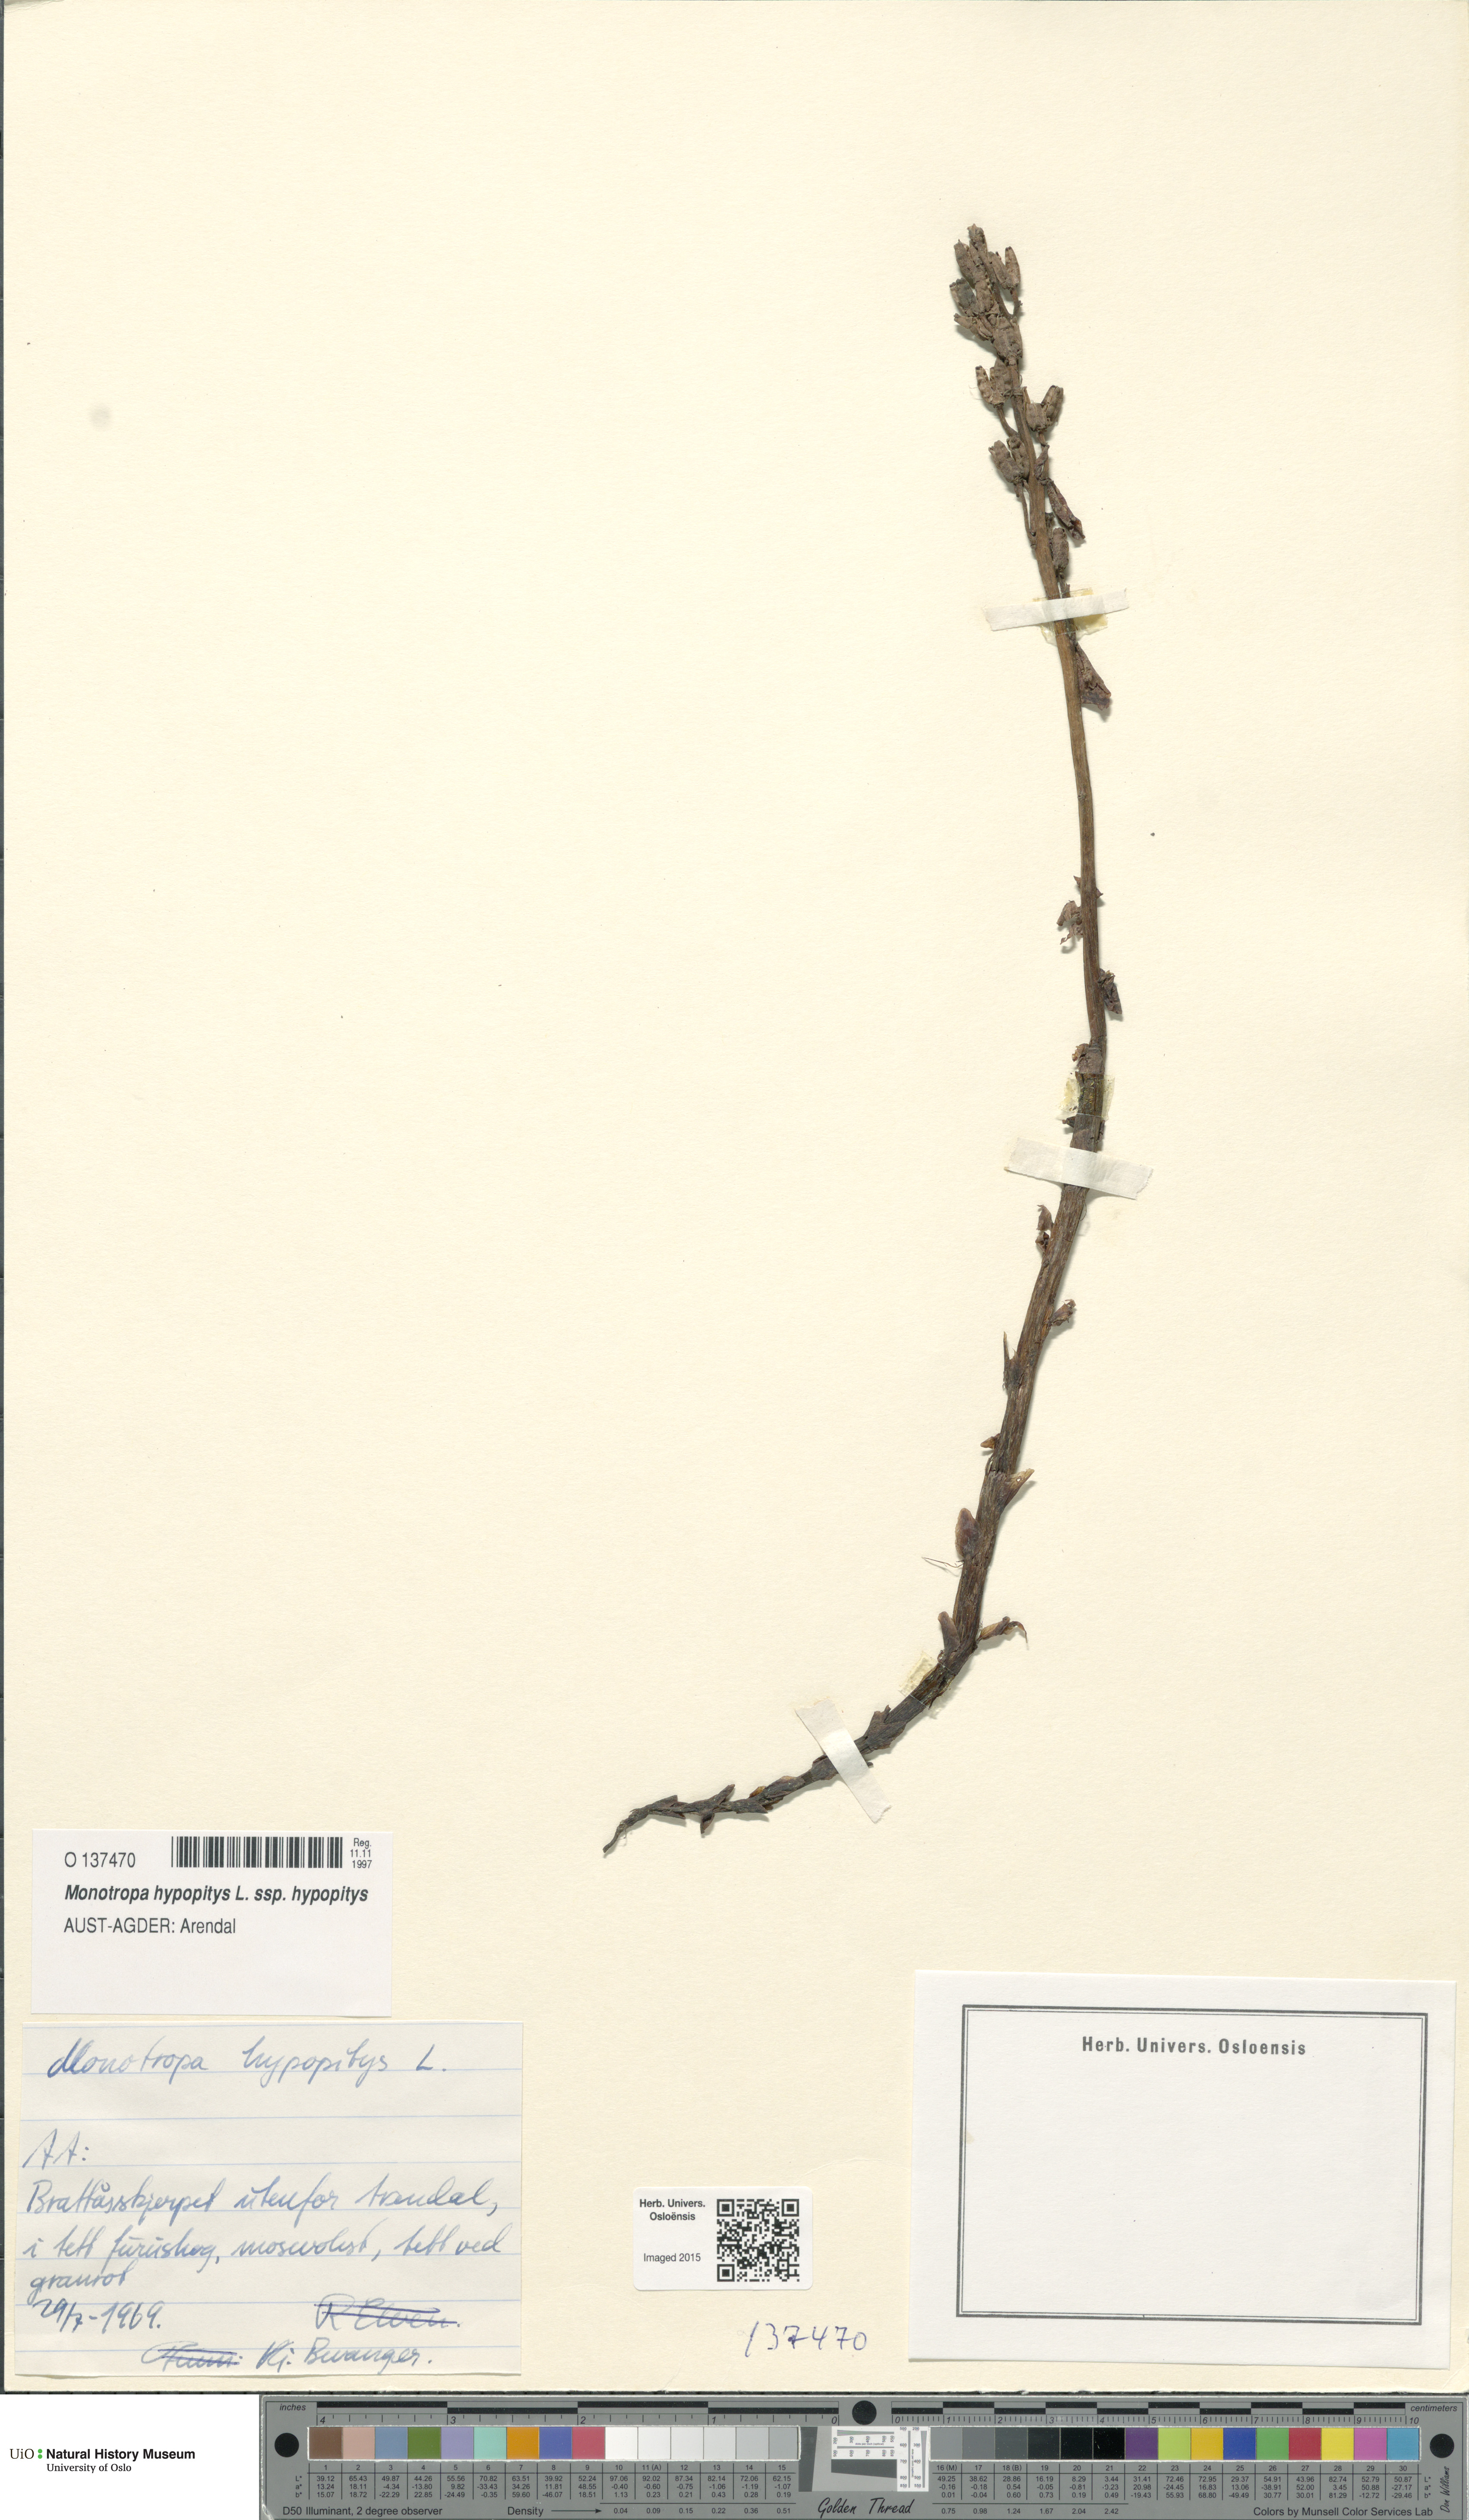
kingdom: Plantae
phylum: Tracheophyta
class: Magnoliopsida
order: Ericales
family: Ericaceae
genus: Hypopitys
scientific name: Hypopitys monotropa
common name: Yellow bird's-nest
